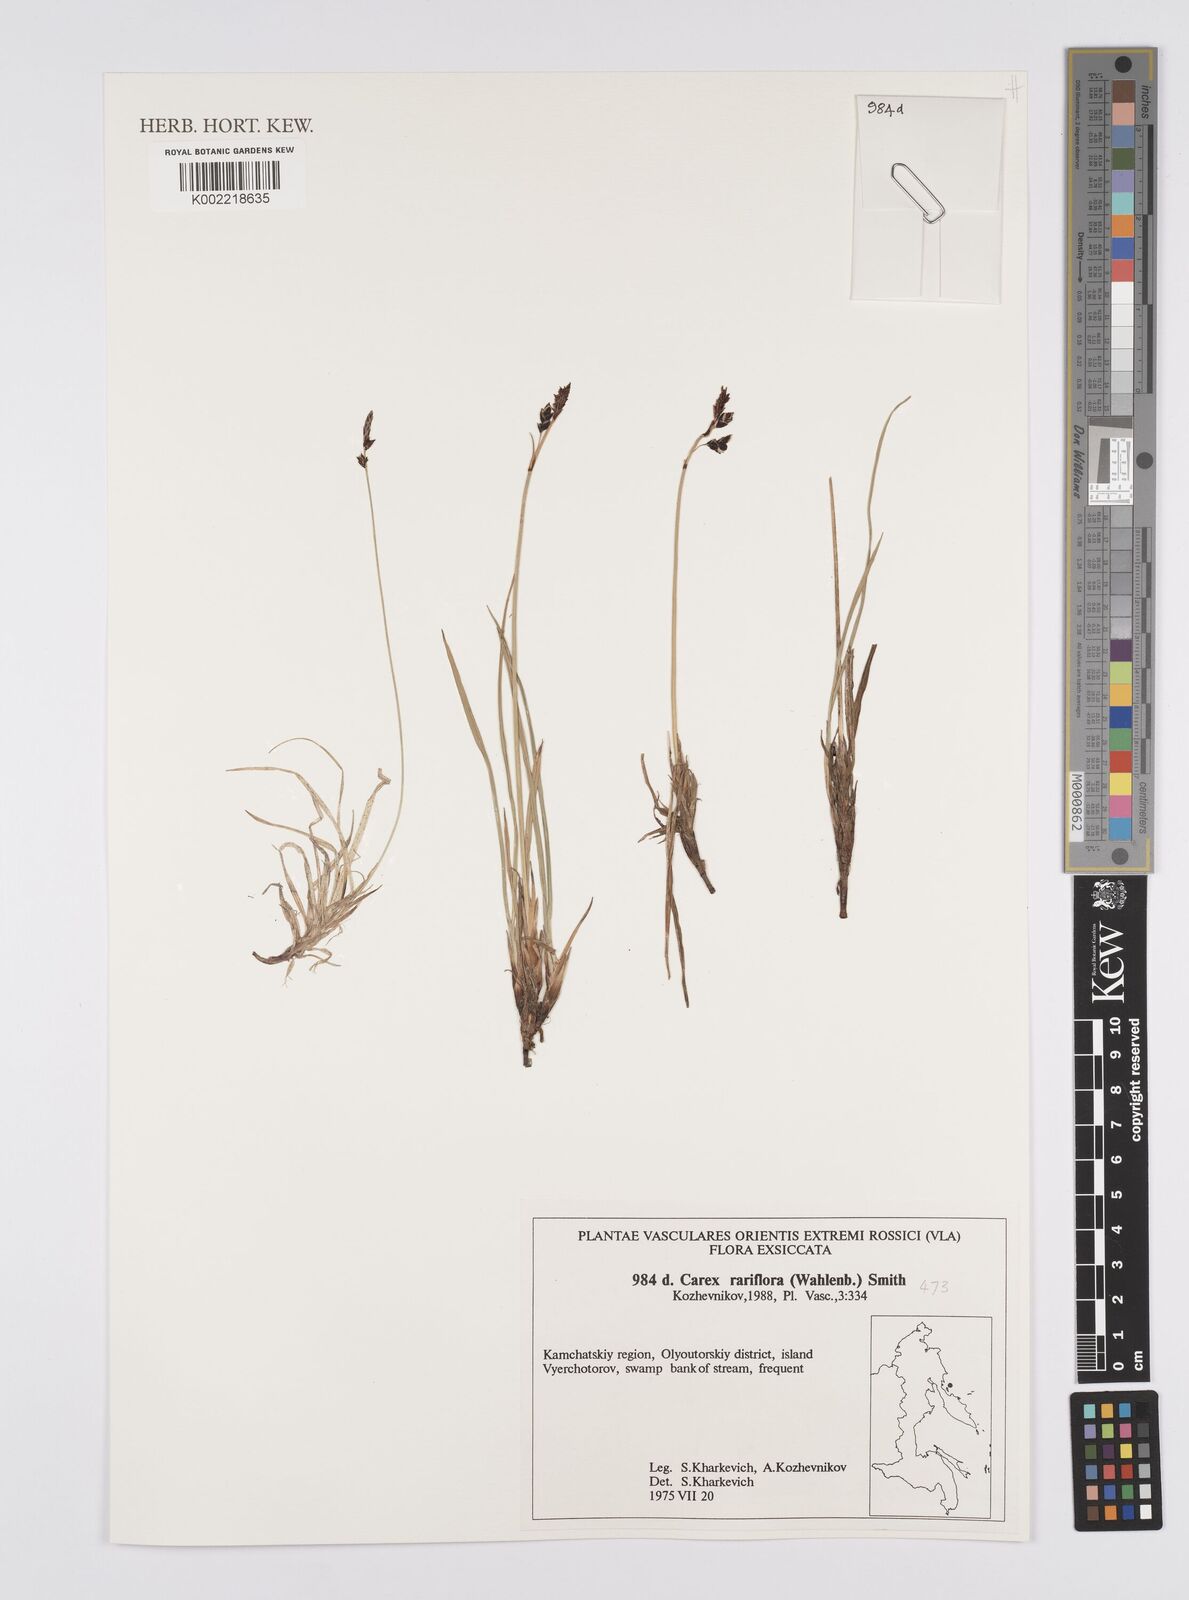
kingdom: Plantae
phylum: Tracheophyta
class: Liliopsida
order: Poales
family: Cyperaceae
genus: Carex
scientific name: Carex rariflora
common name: Loose-flowered alpine sedge
